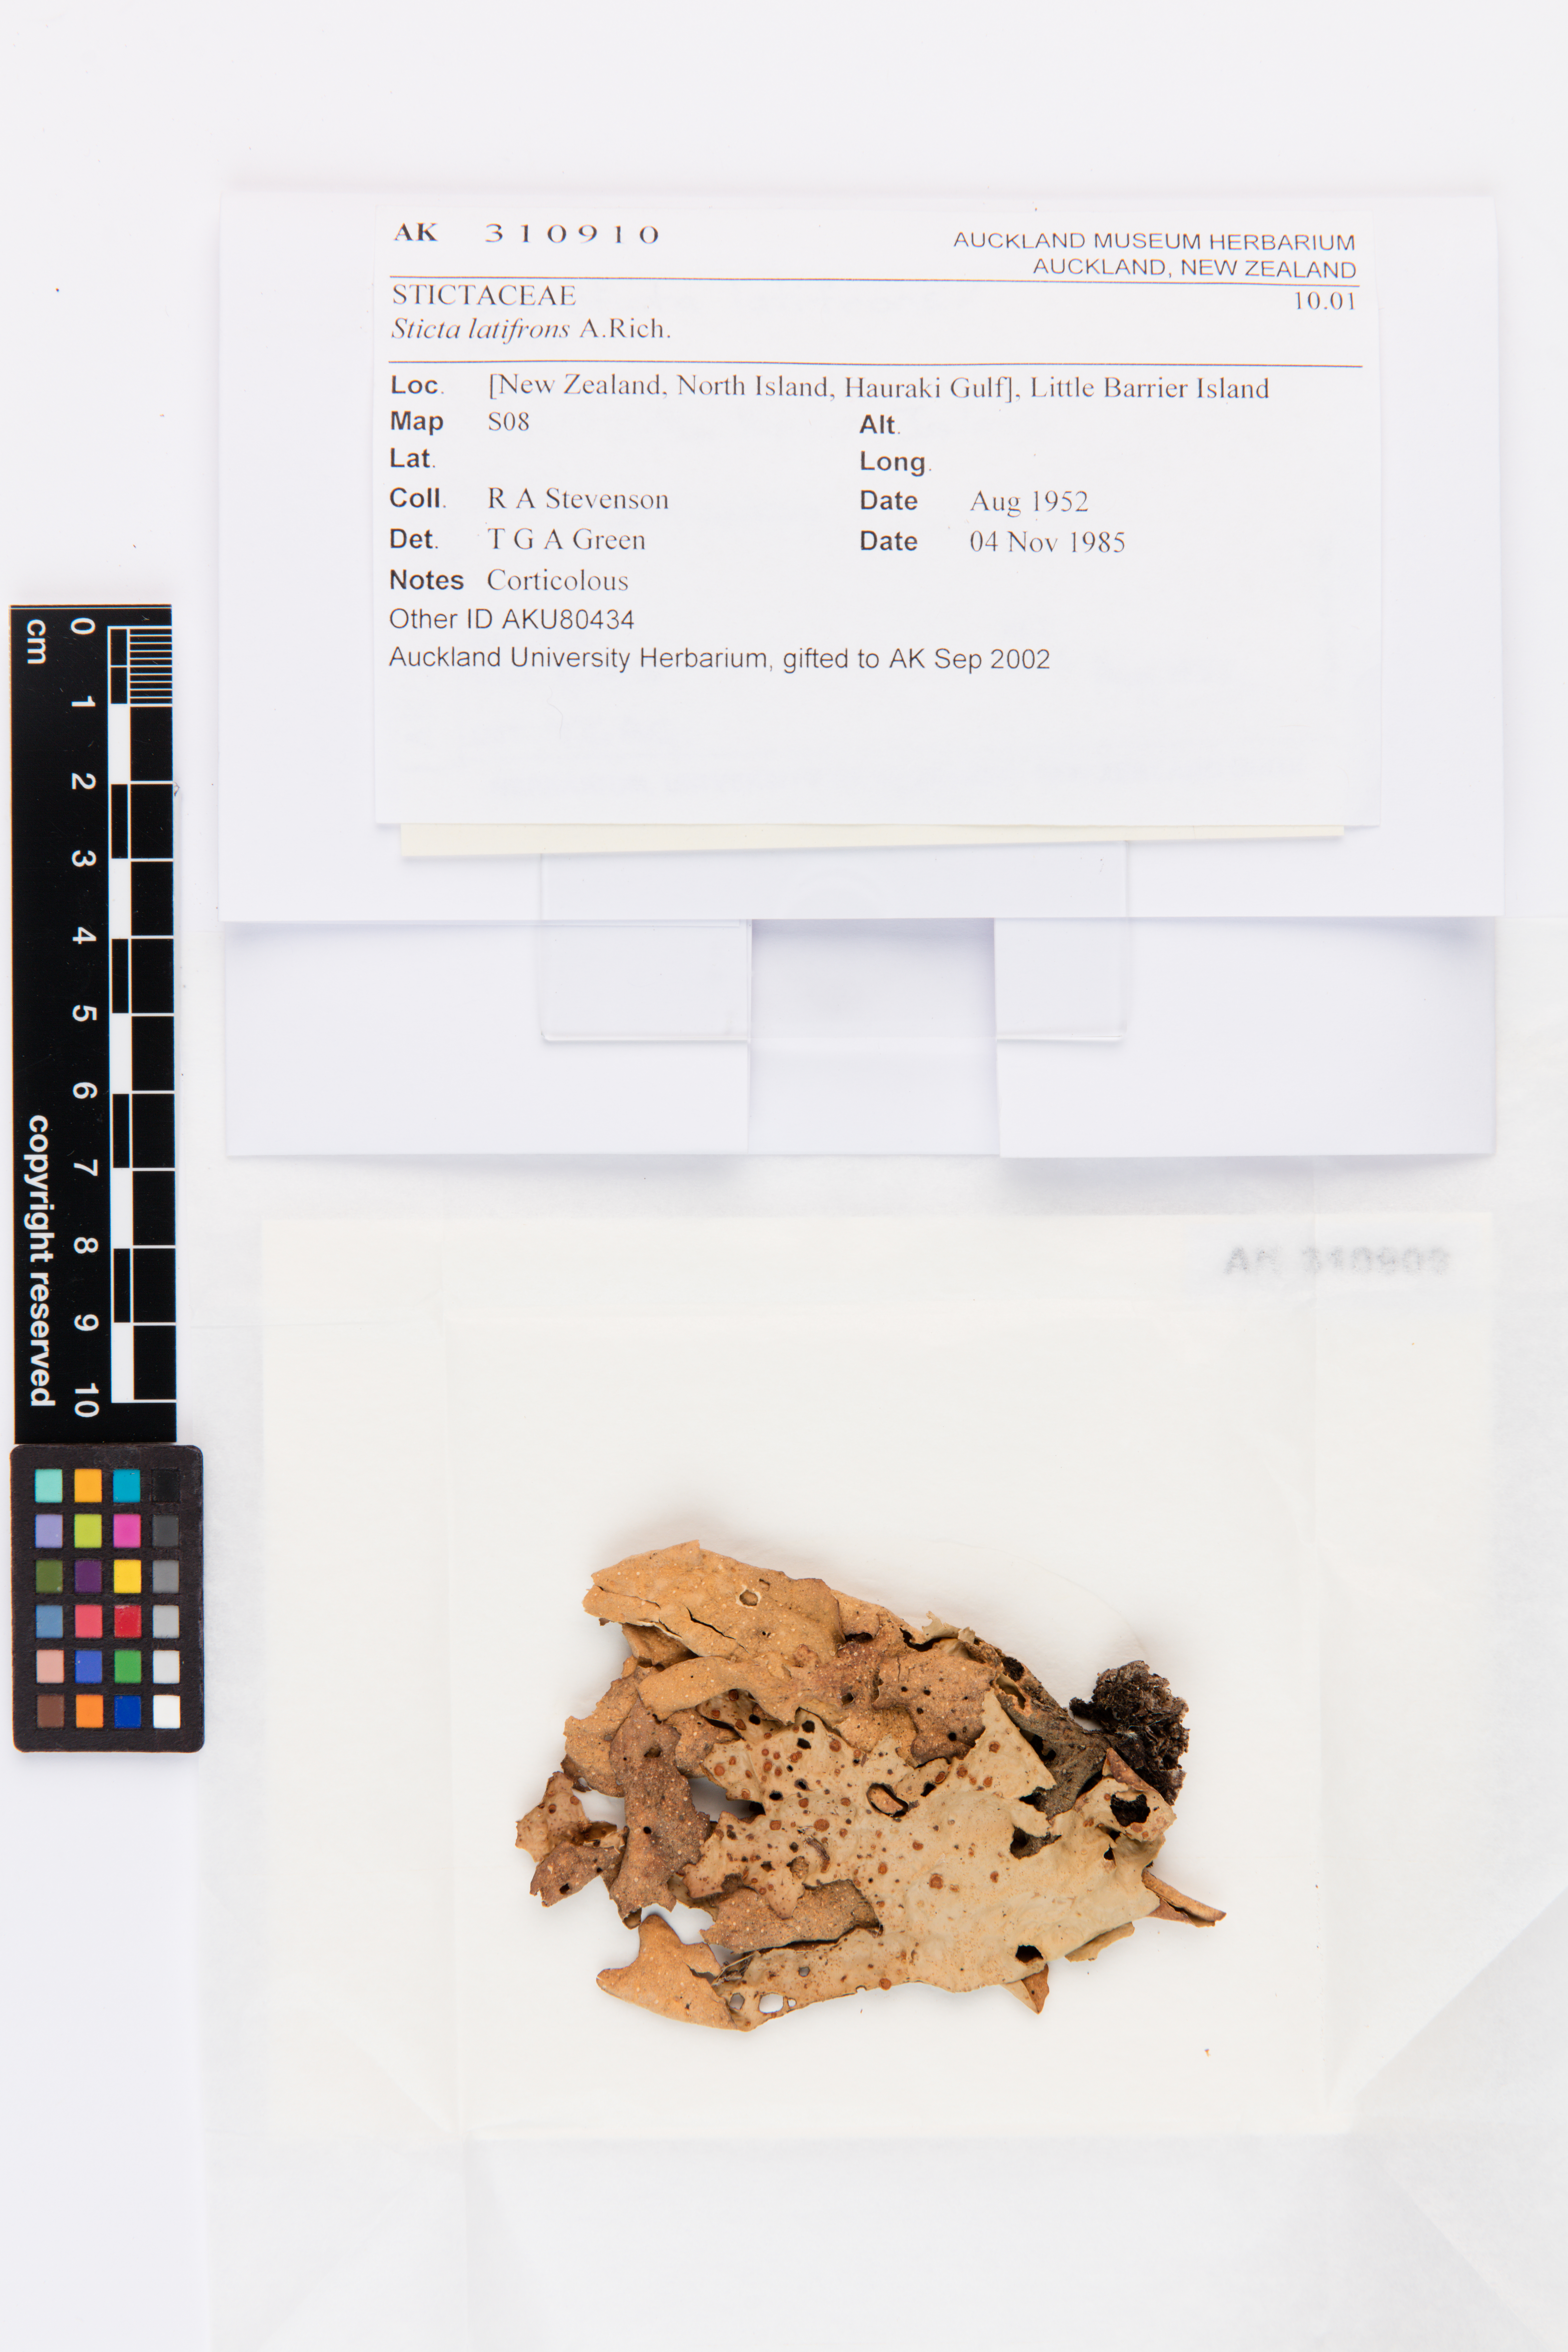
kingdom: Fungi
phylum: Ascomycota
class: Lecanoromycetes
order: Peltigerales
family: Lobariaceae
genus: Sticta
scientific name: Sticta latifrons
